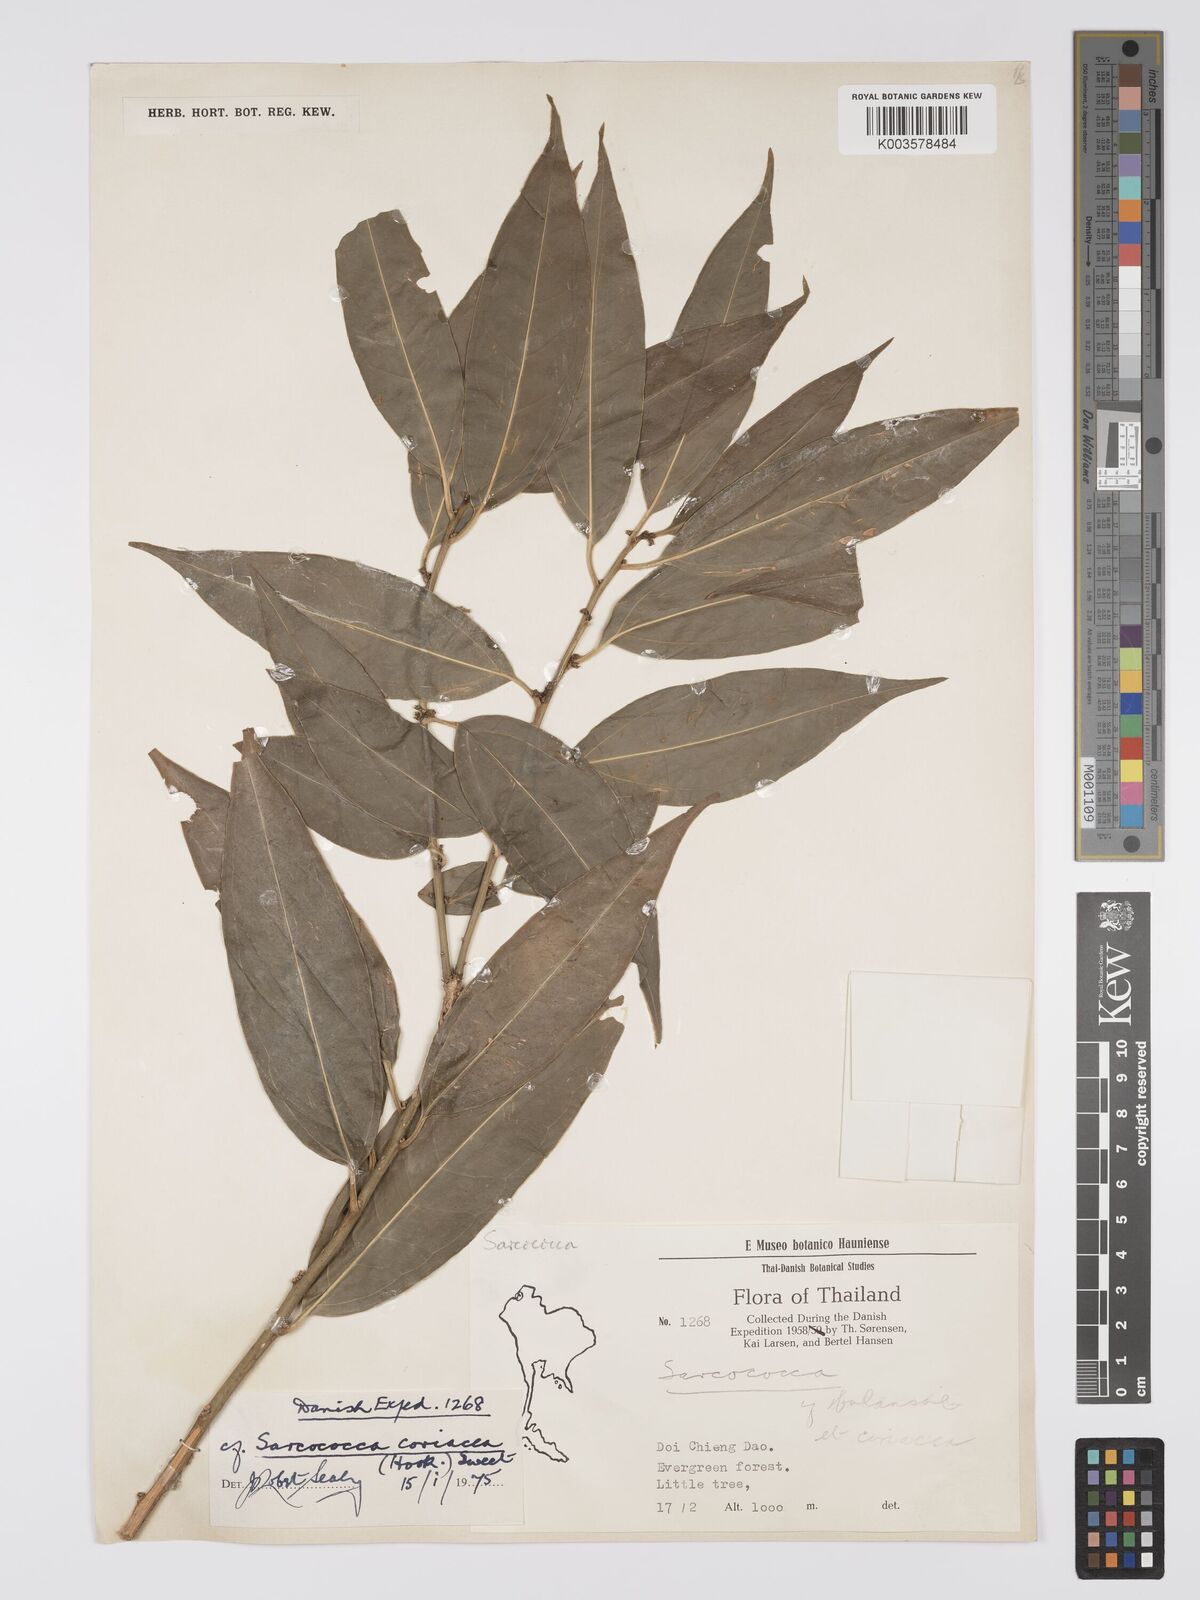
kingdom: Plantae
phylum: Tracheophyta
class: Magnoliopsida
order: Buxales
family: Buxaceae
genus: Sarcococca
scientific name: Sarcococca coriacea
